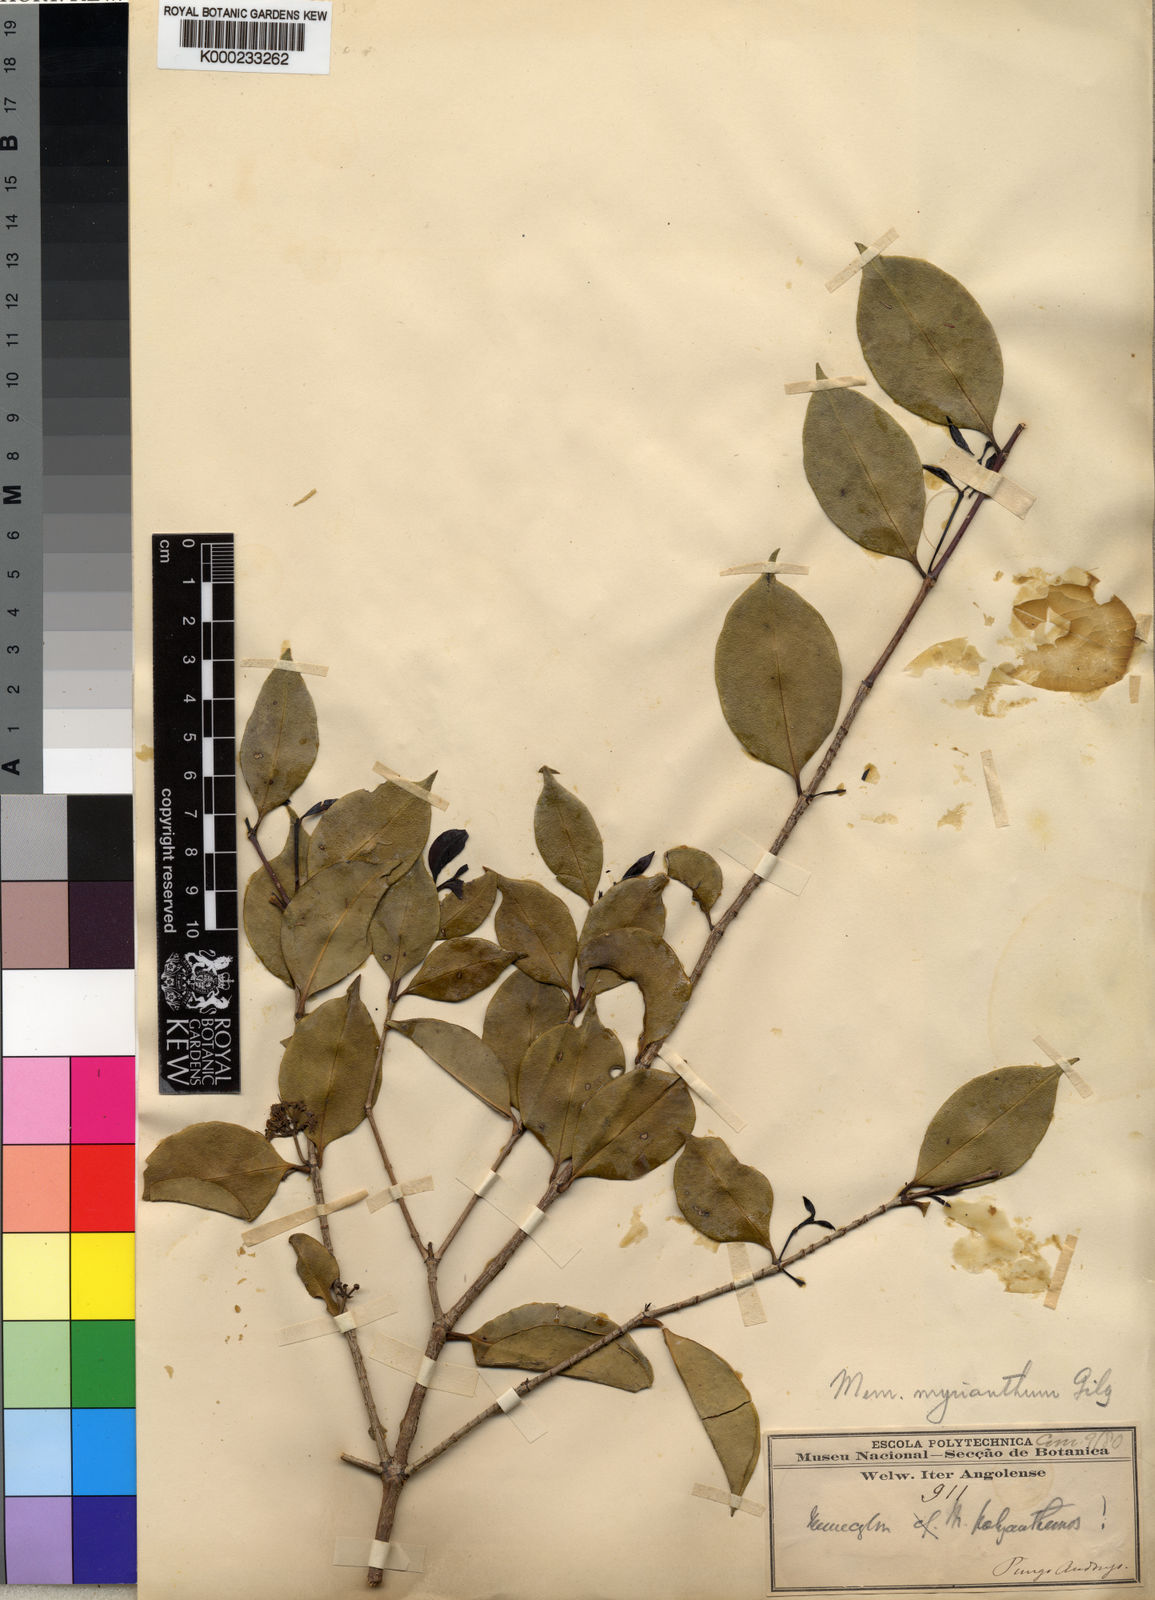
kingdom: Plantae
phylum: Tracheophyta
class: Magnoliopsida
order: Myrtales
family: Melastomataceae
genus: Memecylon
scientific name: Memecylon myrianthum
